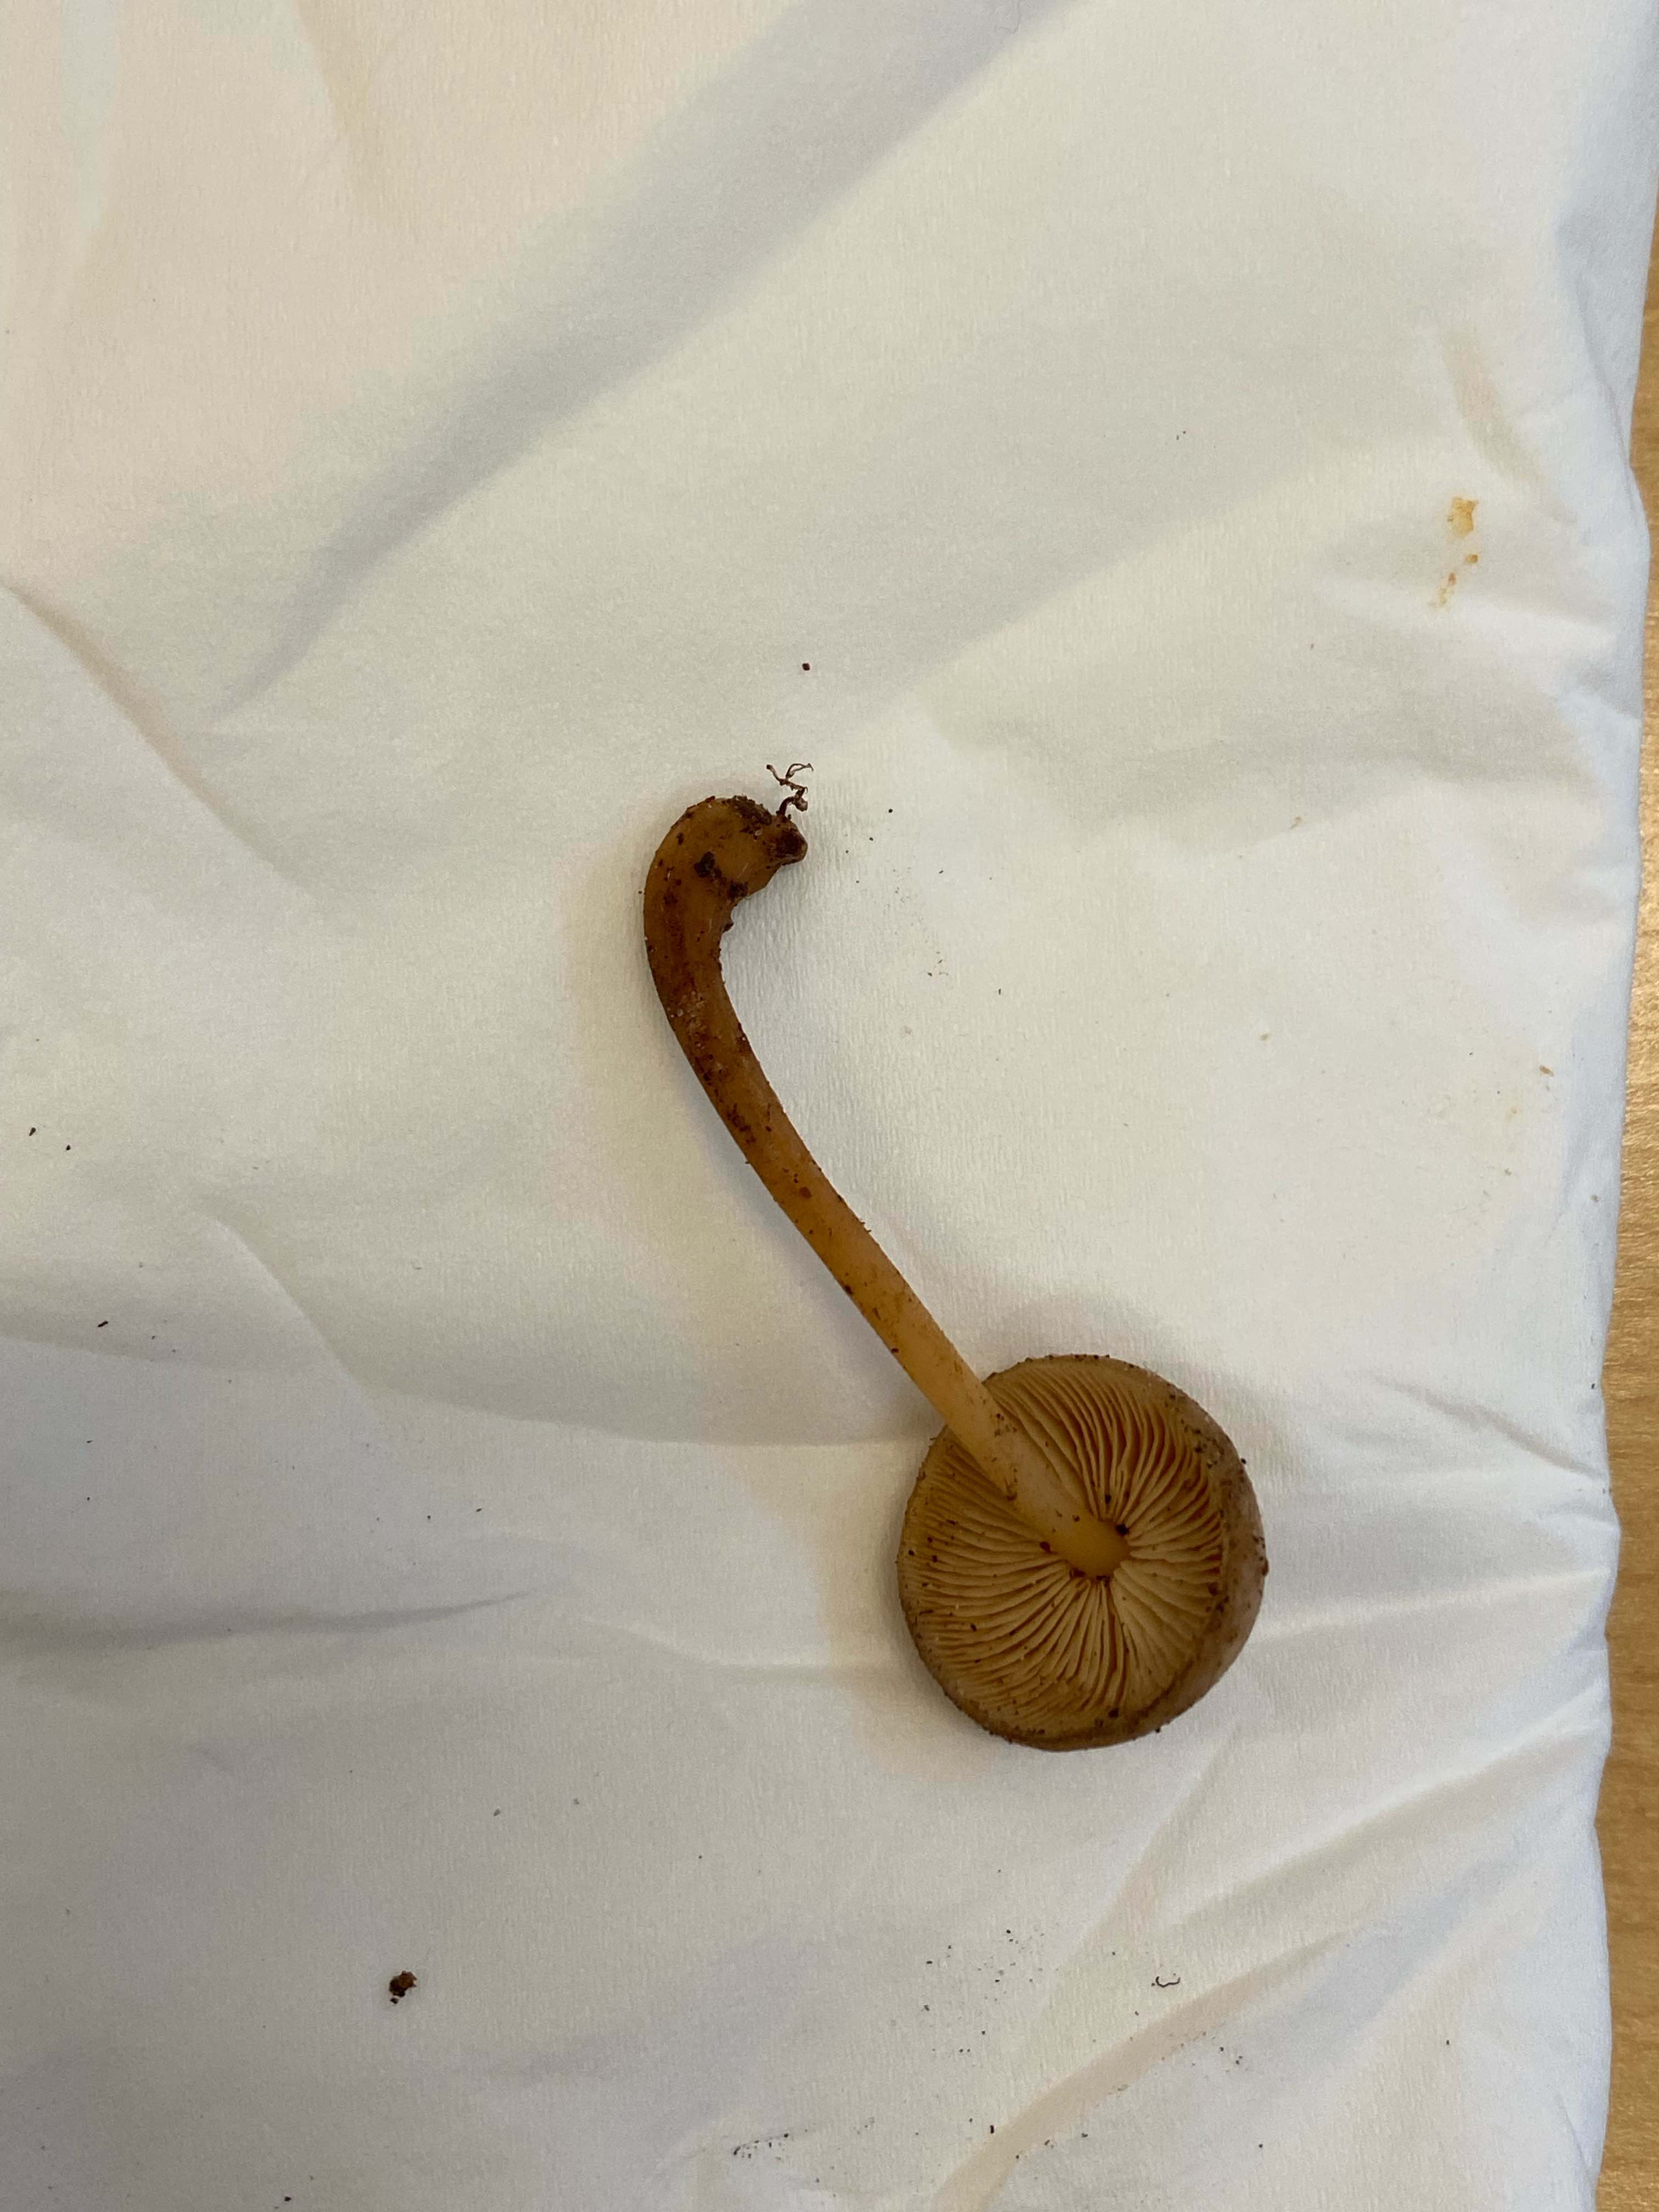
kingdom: Fungi
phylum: Basidiomycota
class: Agaricomycetes
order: Agaricales
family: Omphalotaceae
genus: Gymnopus
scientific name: Gymnopus aquosus
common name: bleg fladhat
